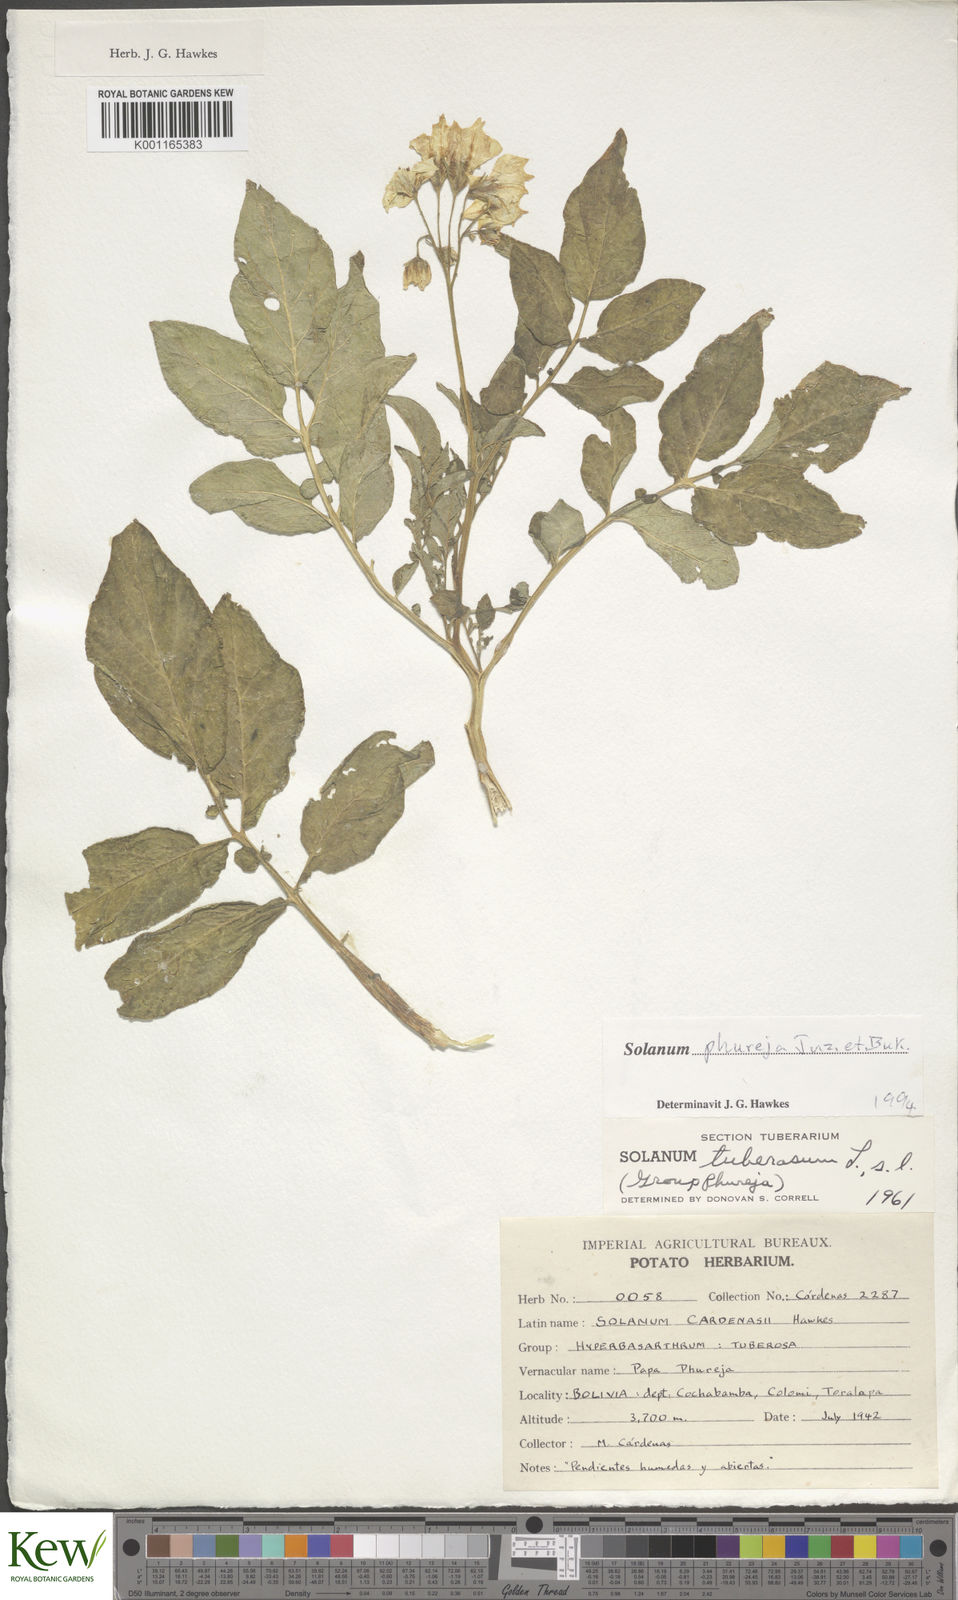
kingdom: Plantae
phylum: Tracheophyta
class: Magnoliopsida
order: Solanales
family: Solanaceae
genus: Solanum
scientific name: Solanum tuberosum
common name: Potato
